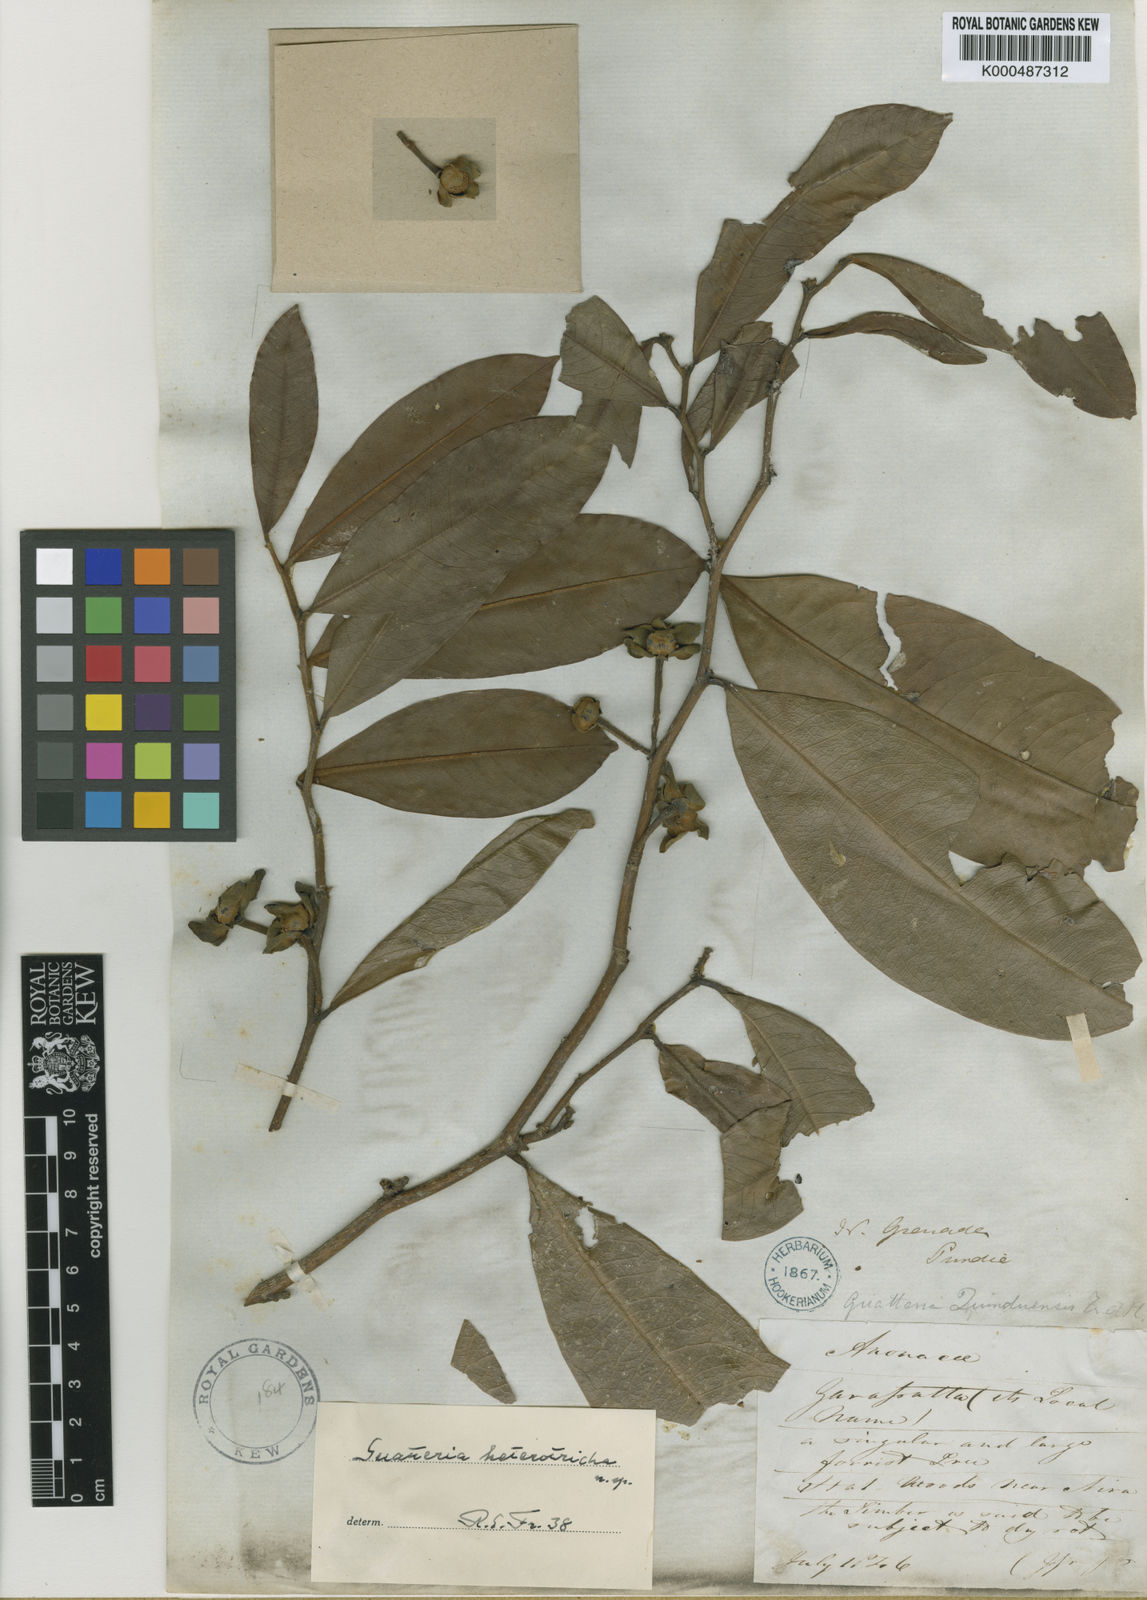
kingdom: Plantae
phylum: Tracheophyta
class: Magnoliopsida
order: Magnoliales
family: Annonaceae
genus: Guatteria
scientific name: Guatteria goudotiana
